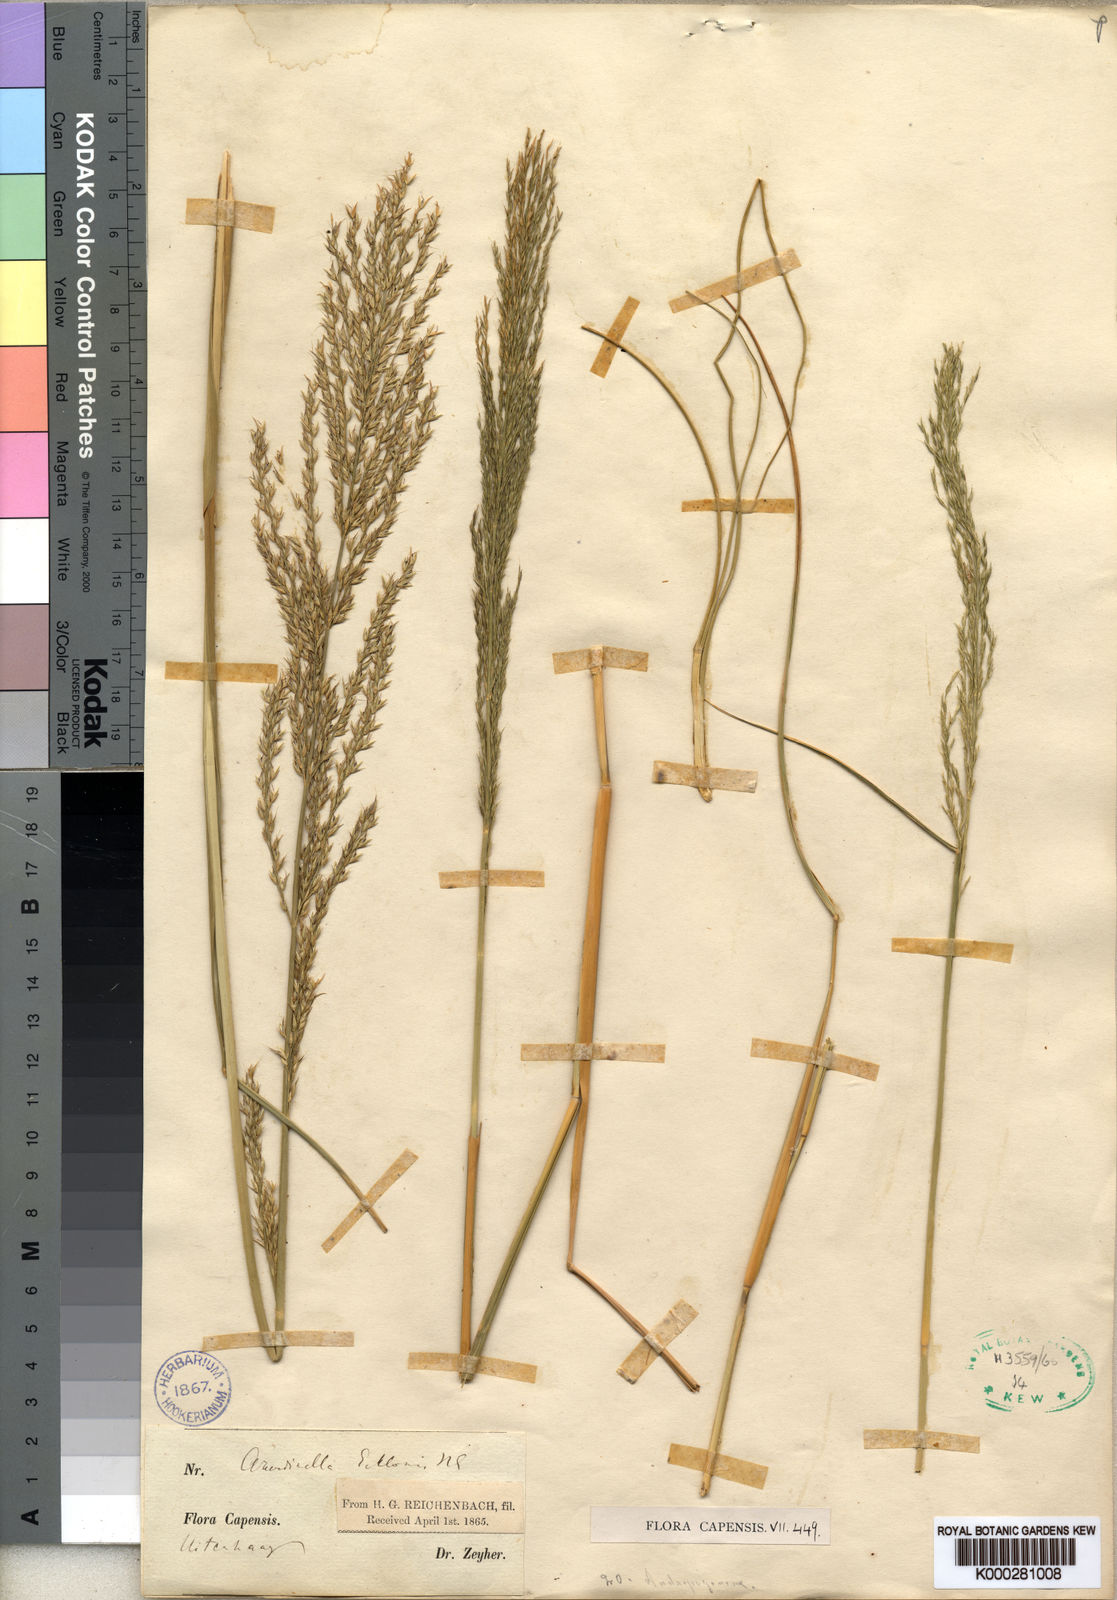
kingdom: Plantae
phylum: Tracheophyta
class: Liliopsida
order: Poales
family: Poaceae
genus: Arundinella
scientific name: Arundinella nepalensis
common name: Reed grass
